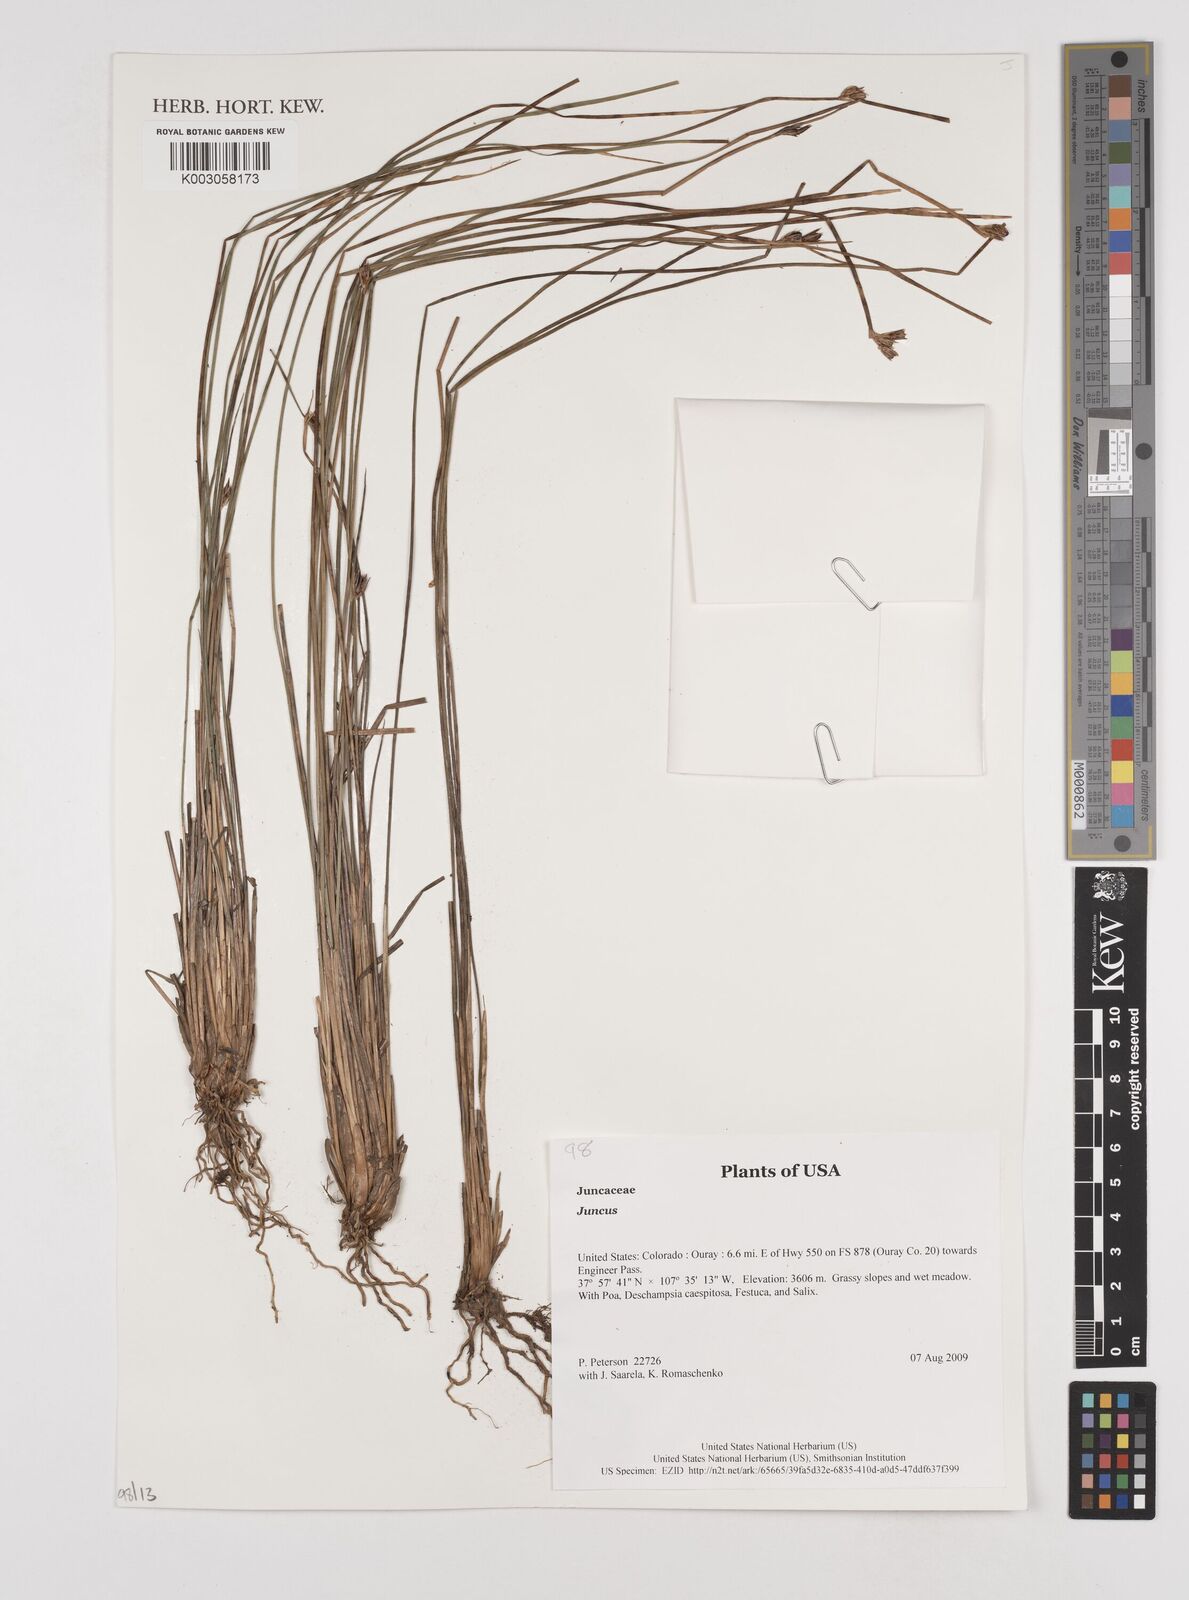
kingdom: Plantae
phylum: Tracheophyta
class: Liliopsida
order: Poales
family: Juncaceae
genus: Juncus
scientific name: Juncus
